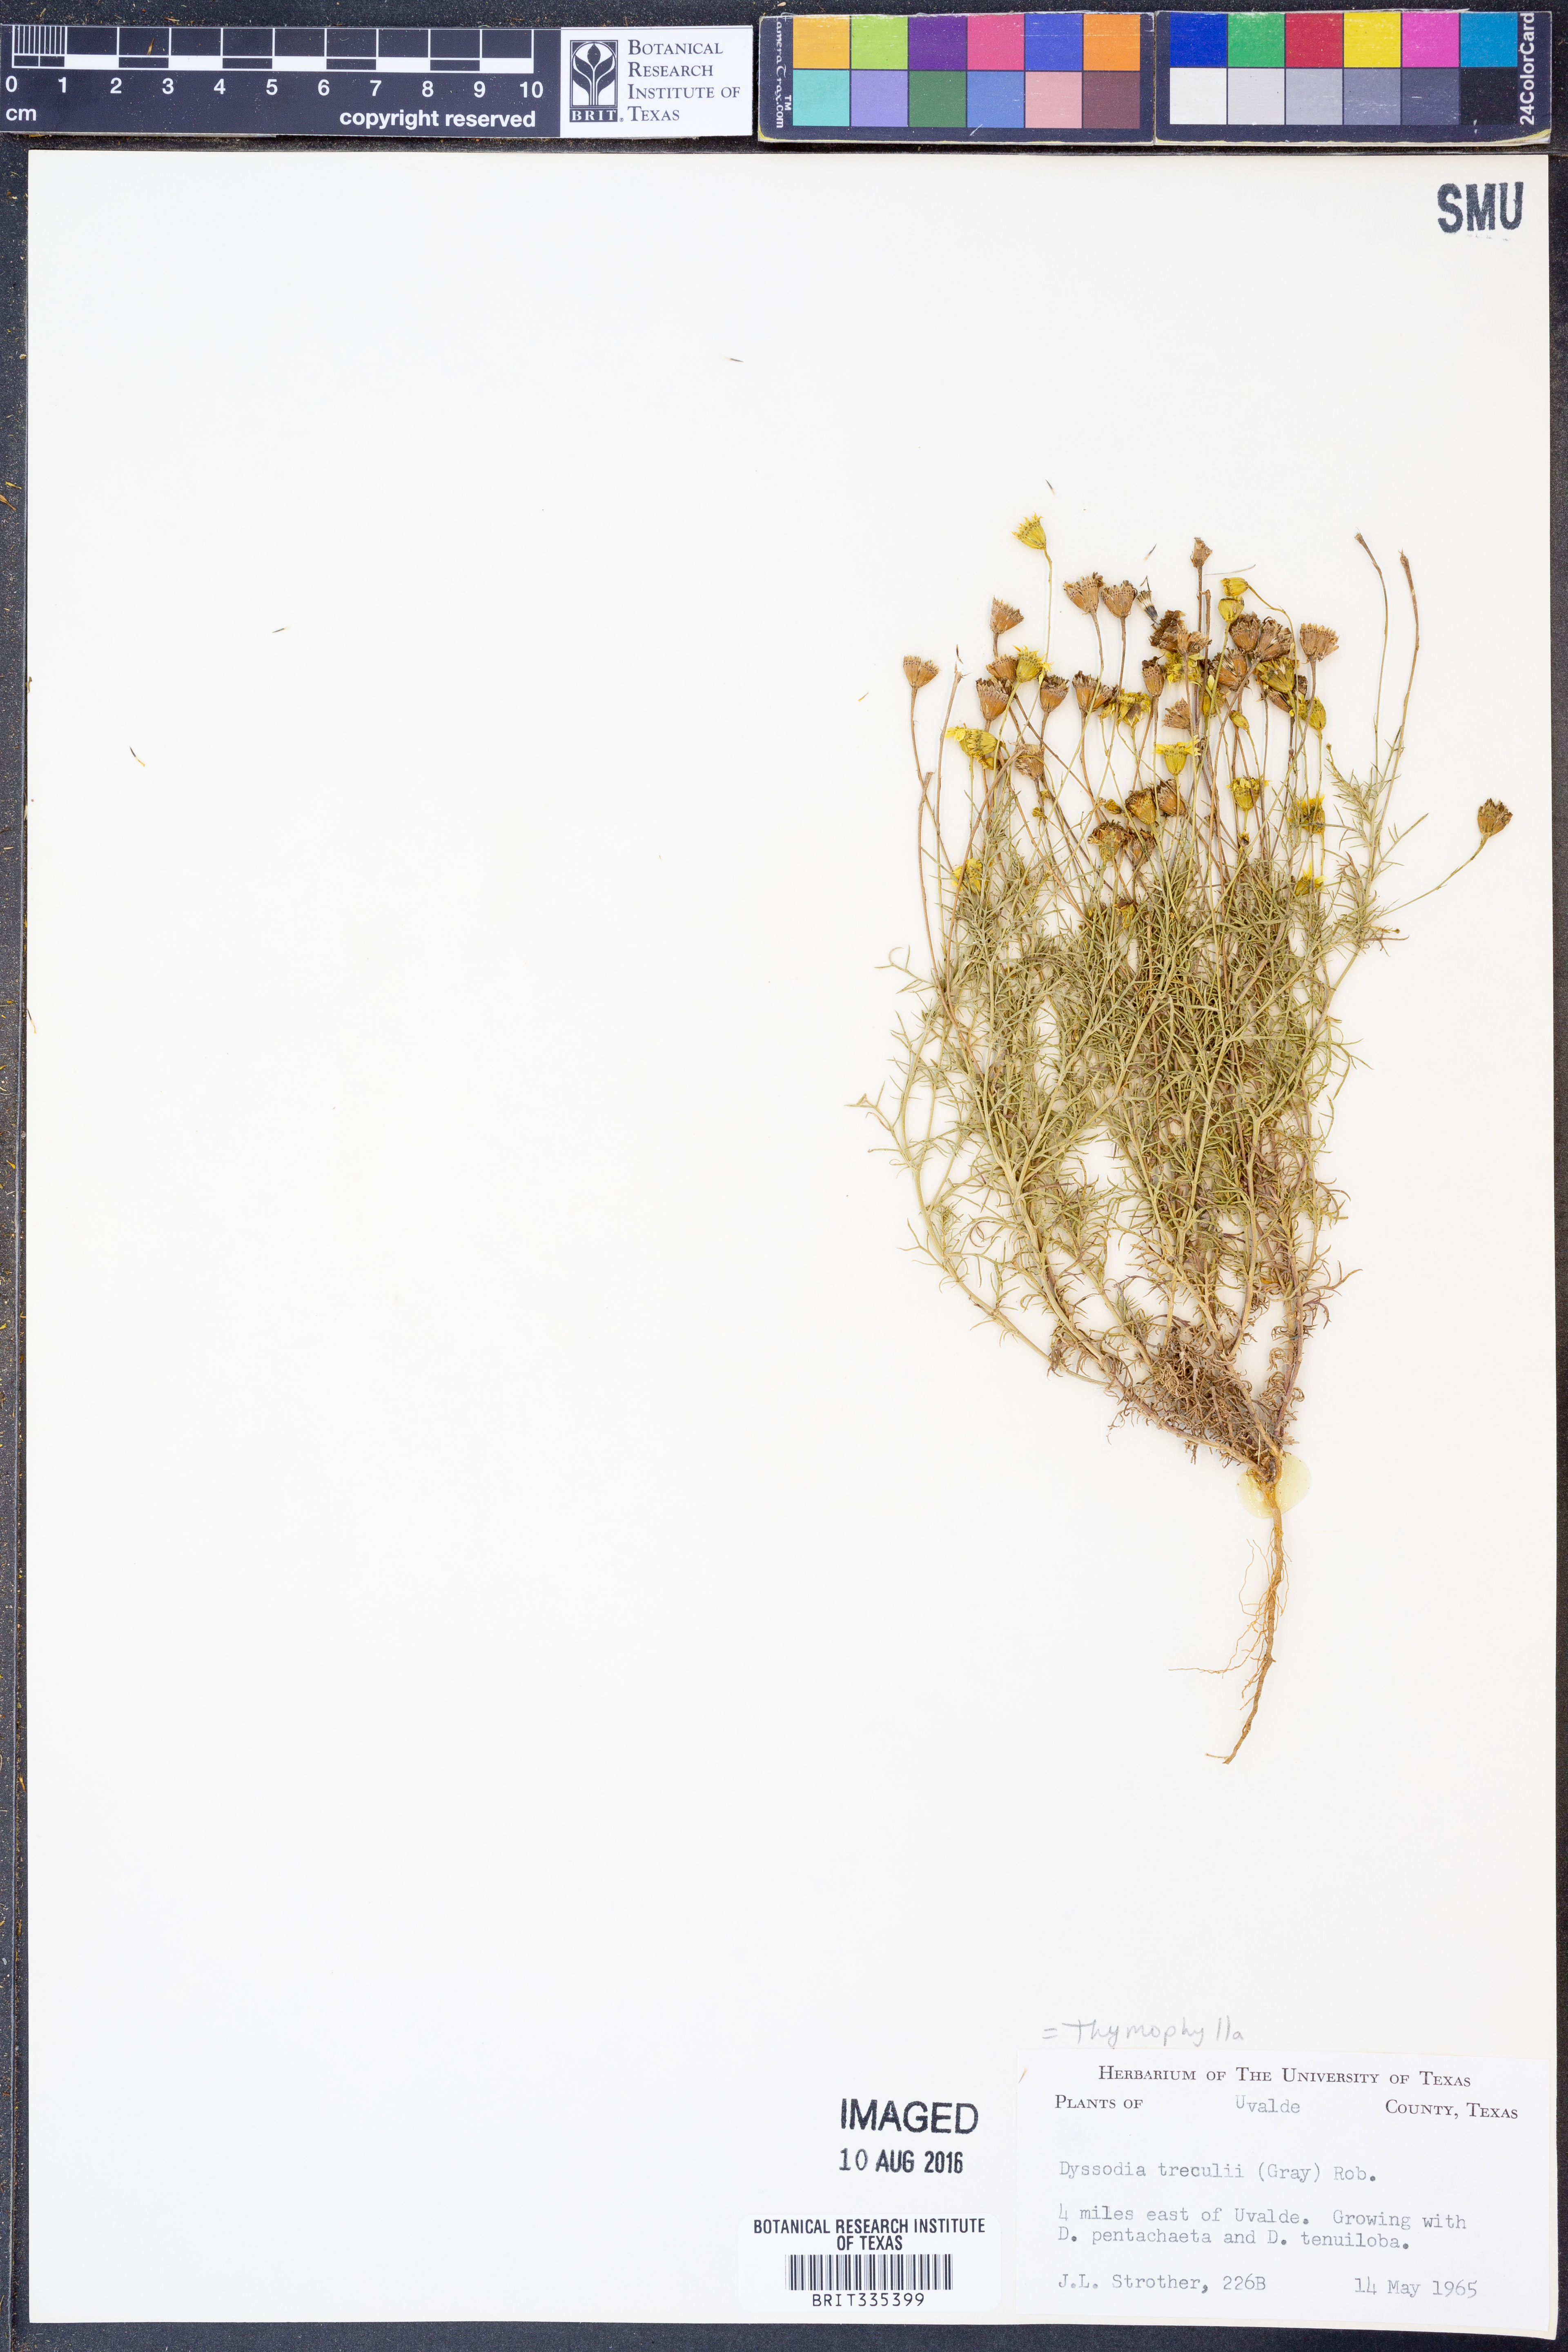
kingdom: Plantae
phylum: Tracheophyta
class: Magnoliopsida
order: Asterales
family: Asteraceae
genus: Thymophylla
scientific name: Thymophylla tenuiloba
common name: Dahlberg's daisy
